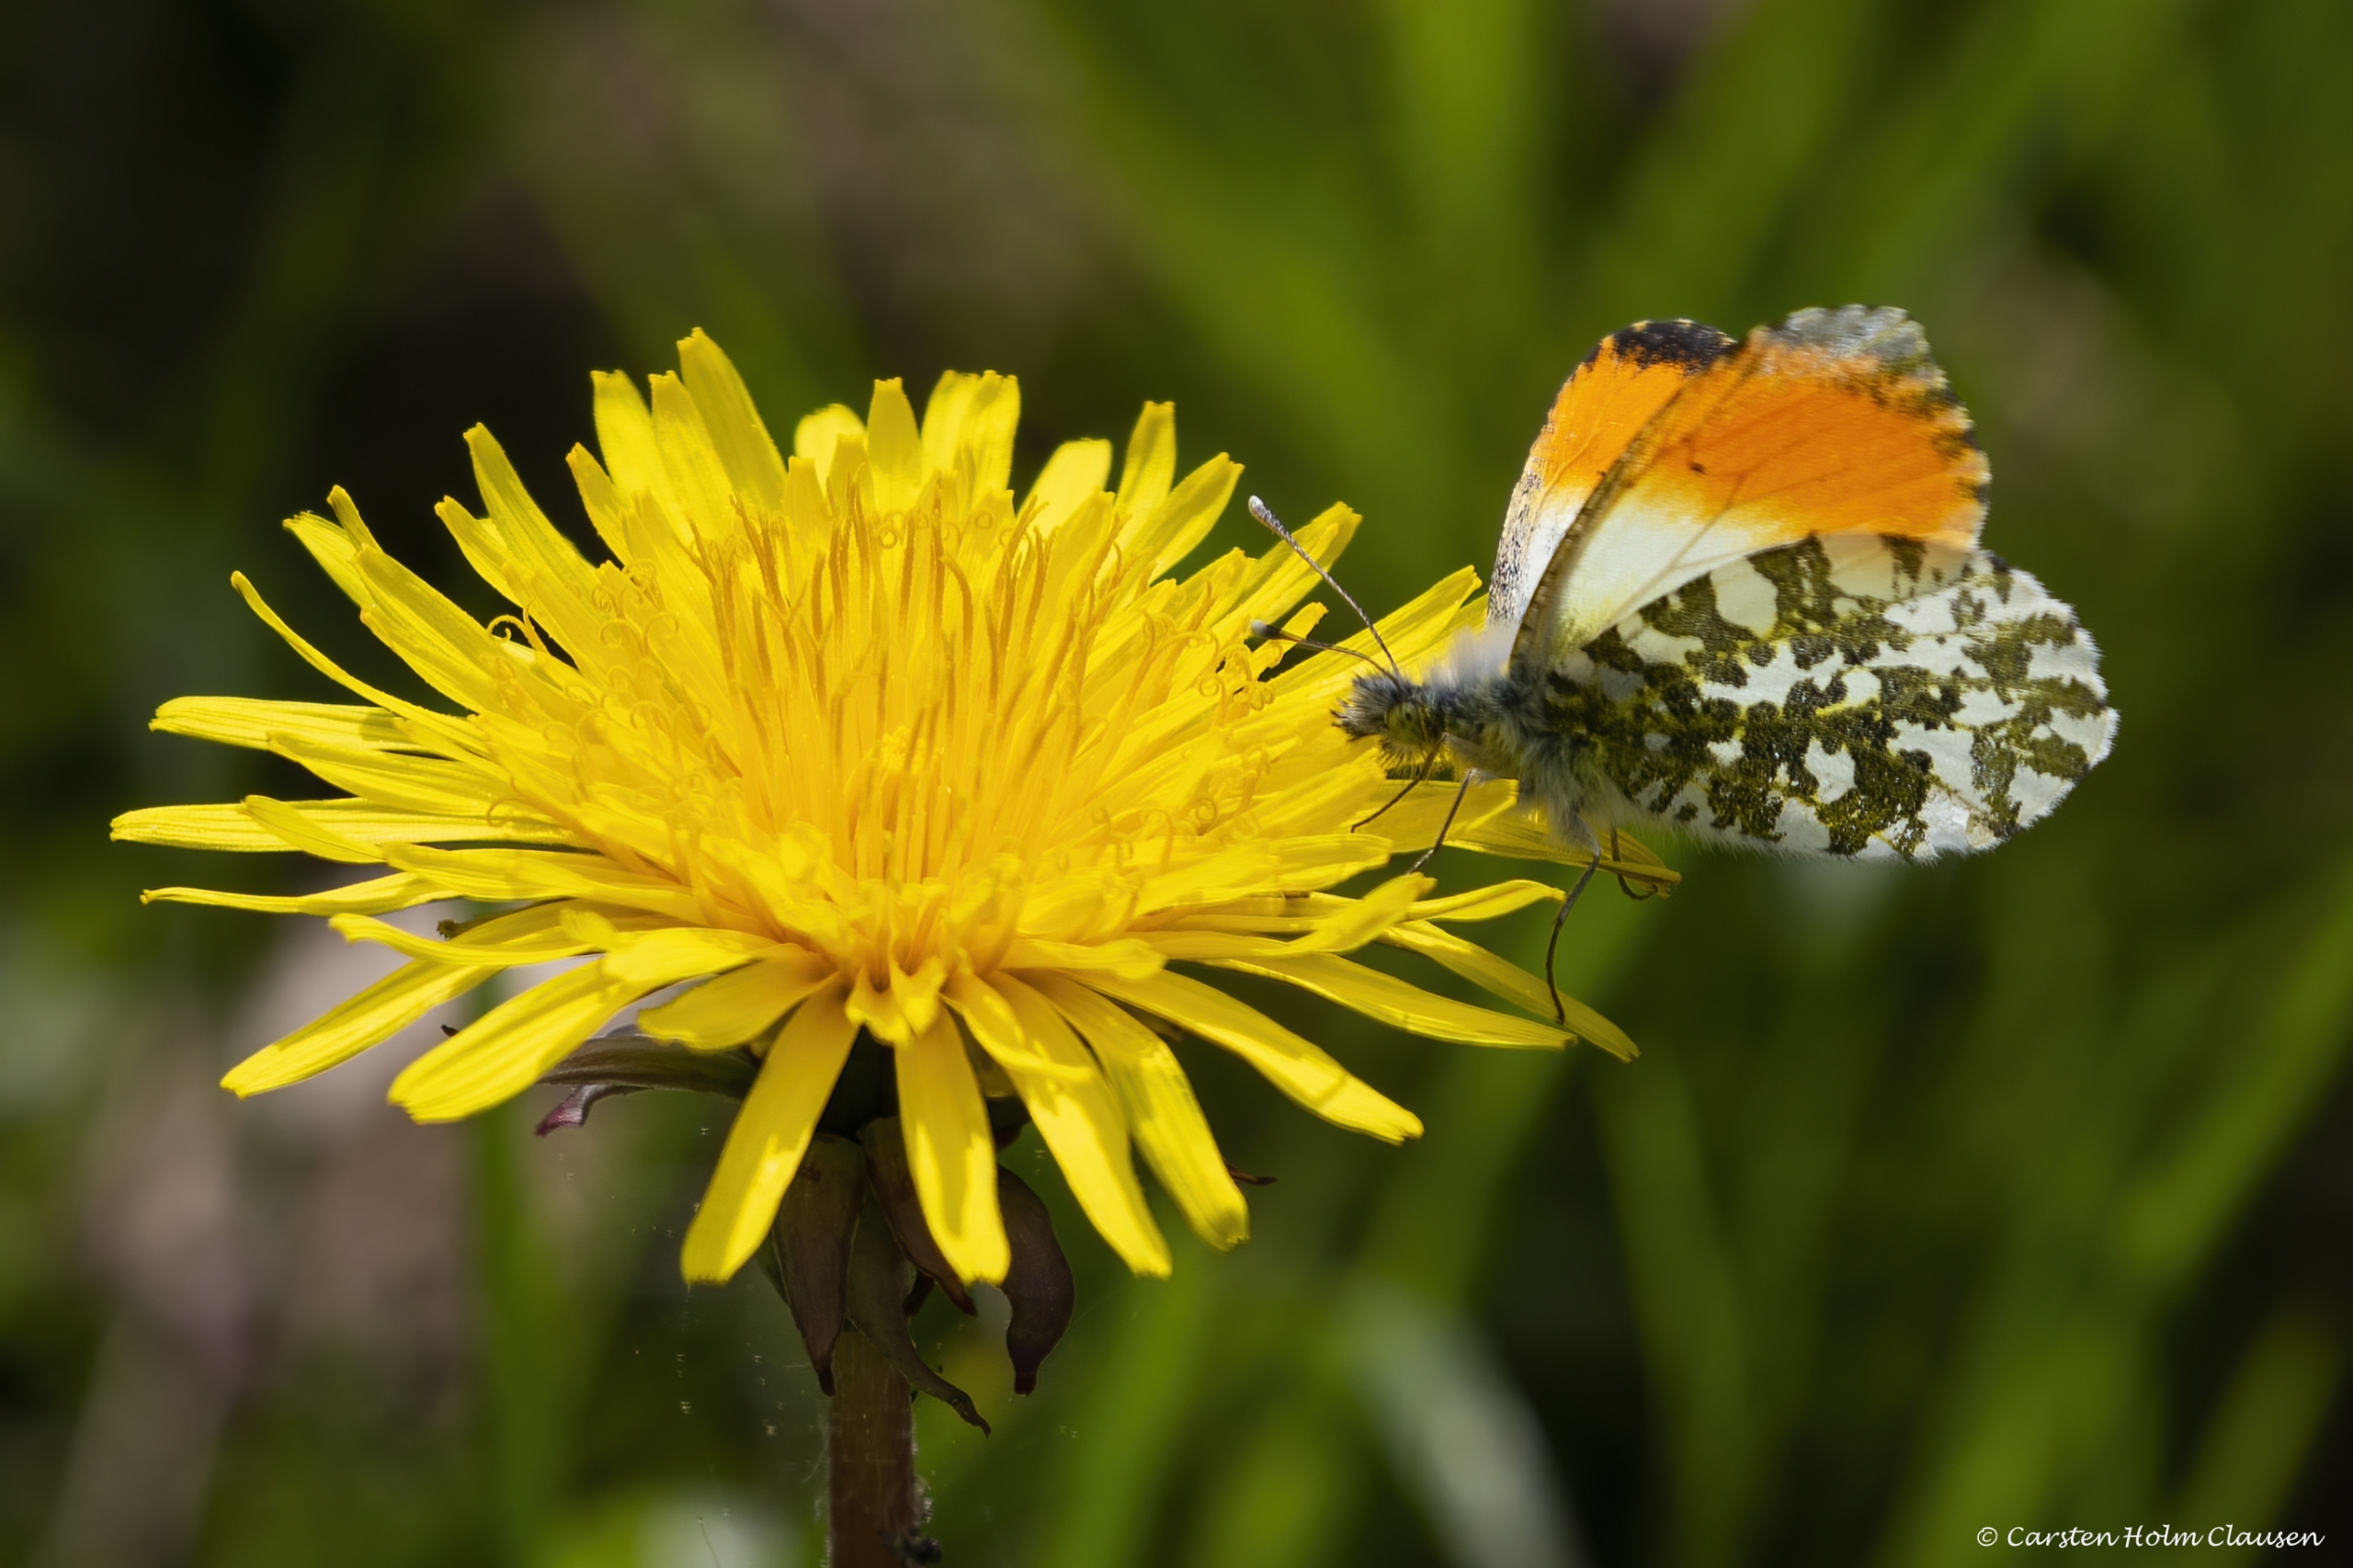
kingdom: Animalia
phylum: Arthropoda
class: Insecta
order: Lepidoptera
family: Pieridae
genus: Anthocharis
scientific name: Anthocharis cardamines
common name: Aurora
